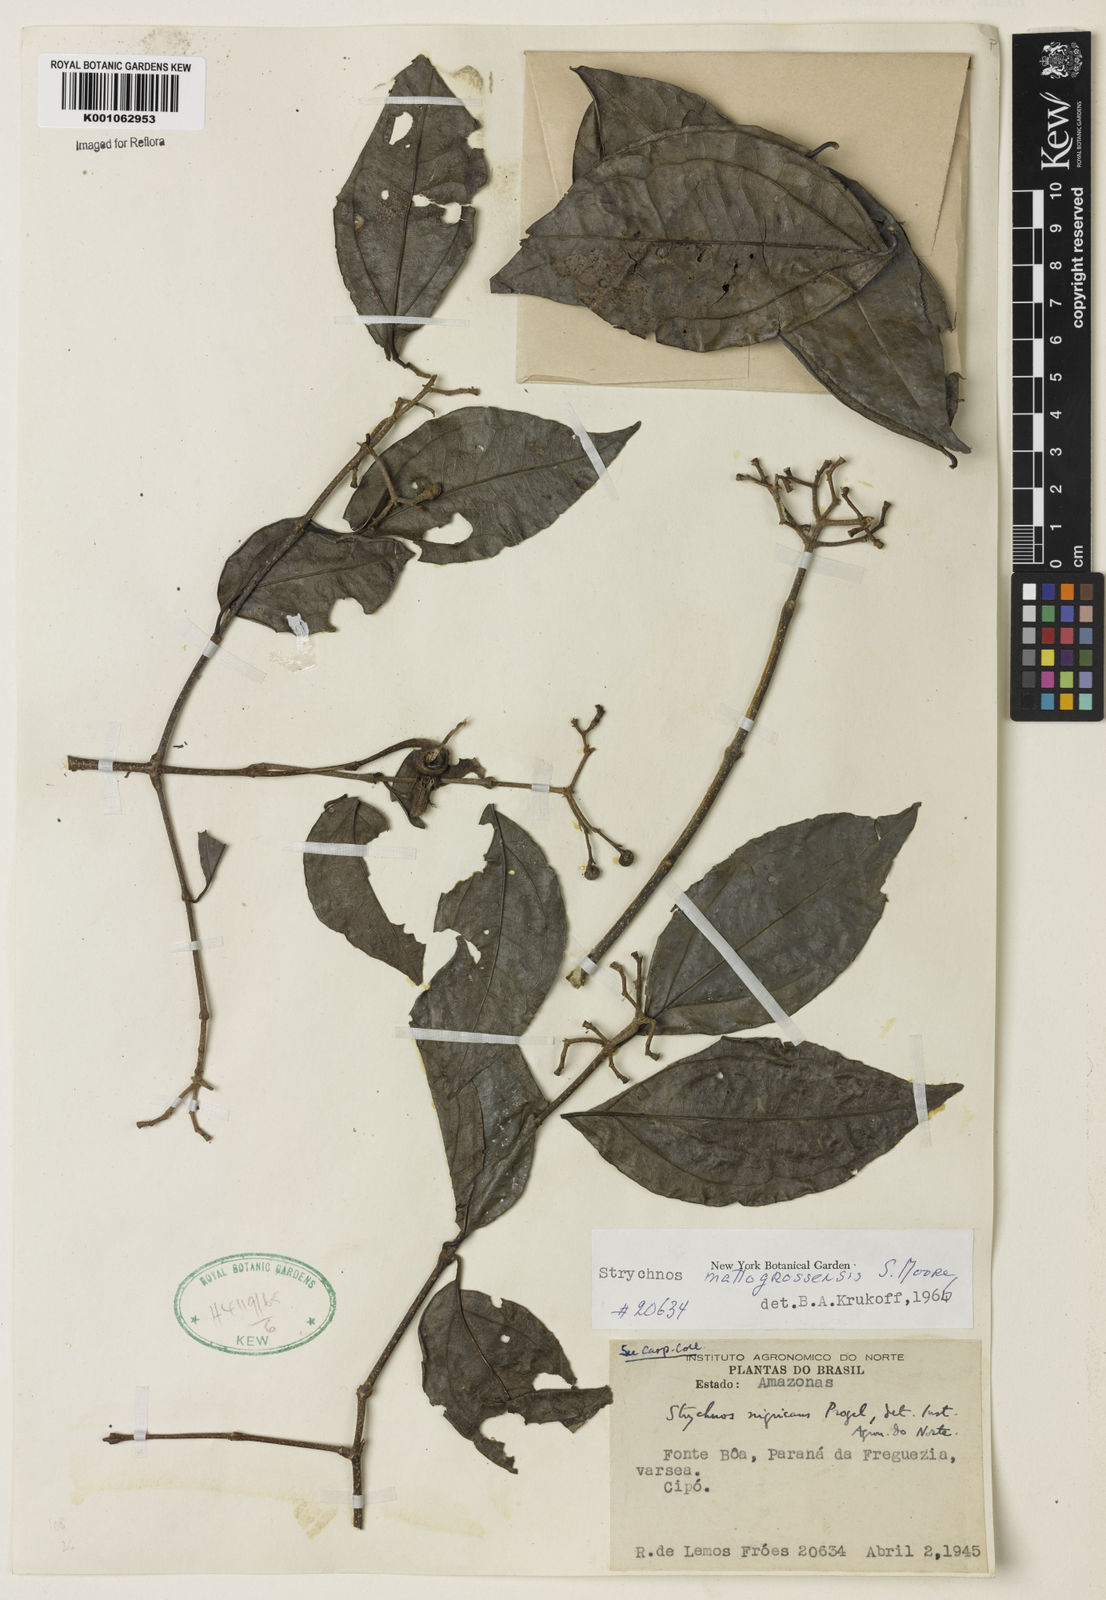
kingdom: Plantae
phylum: Tracheophyta
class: Magnoliopsida
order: Gentianales
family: Loganiaceae
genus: Strychnos
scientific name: Strychnos mattogrossensis
